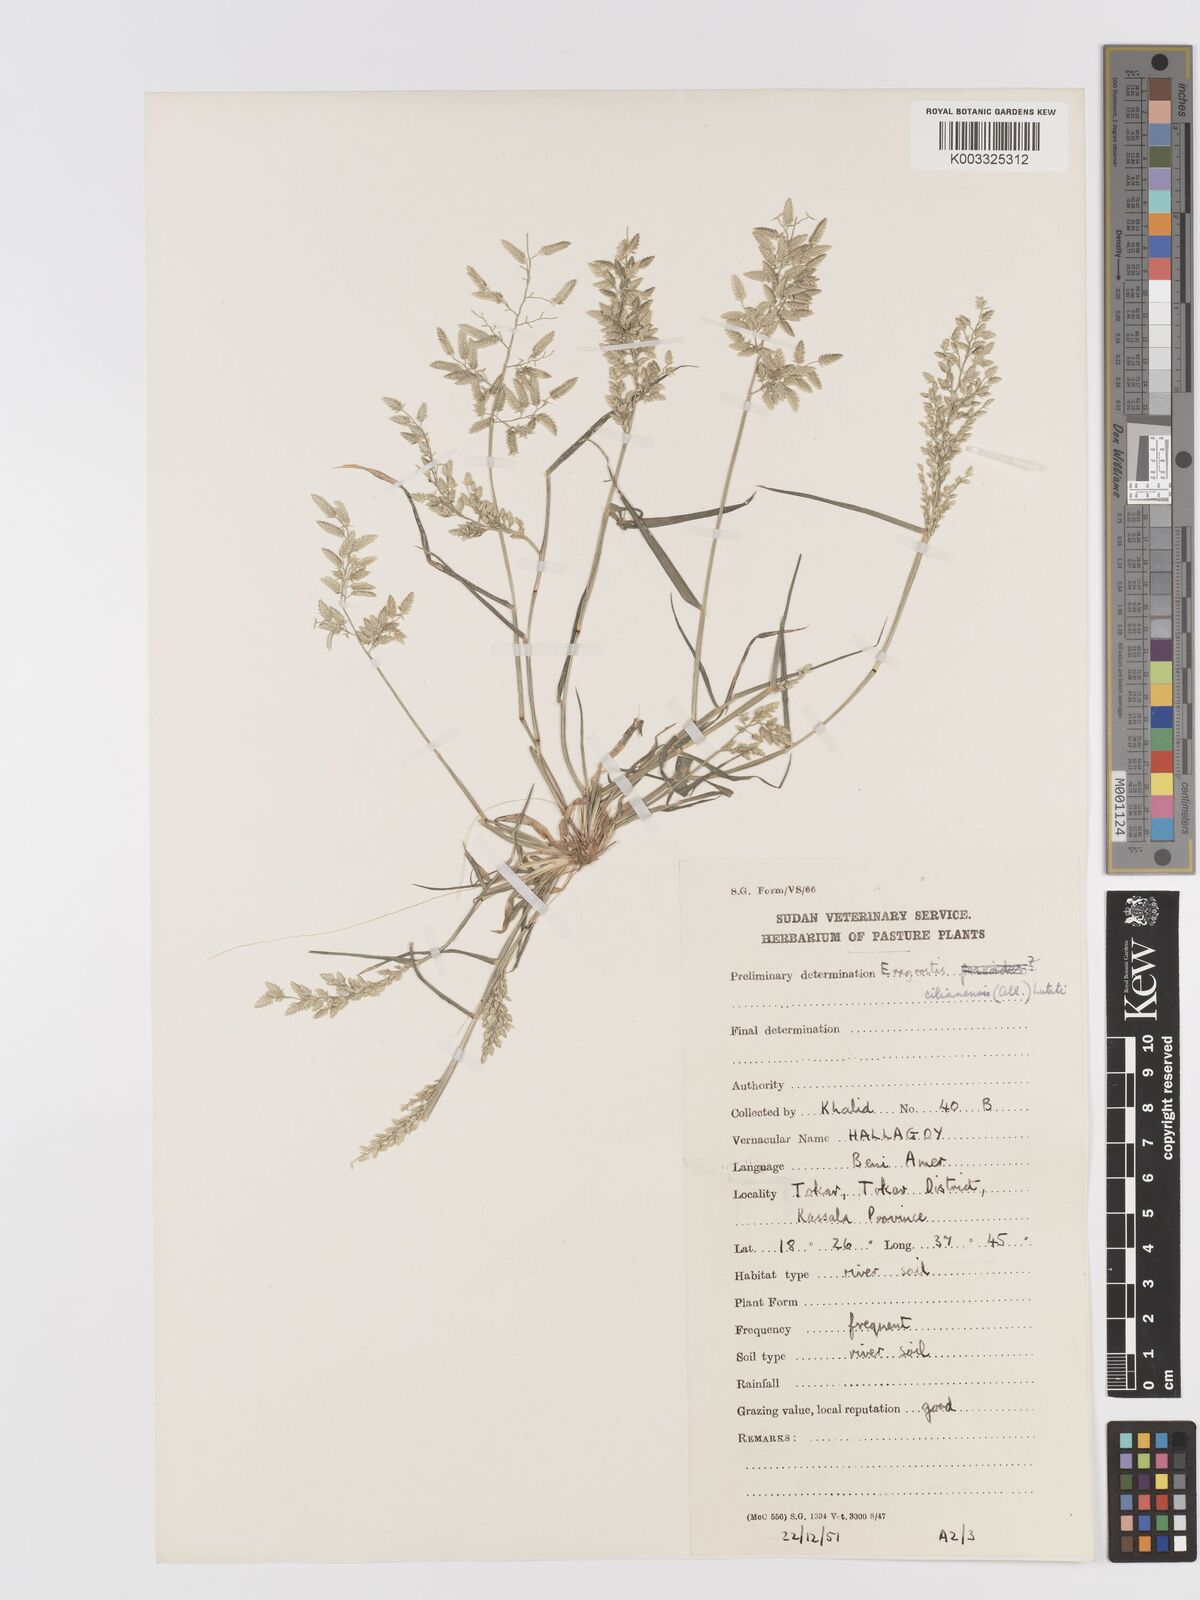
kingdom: Plantae
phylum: Tracheophyta
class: Liliopsida
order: Poales
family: Poaceae
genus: Eragrostis
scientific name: Eragrostis cilianensis
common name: Stinkgrass
